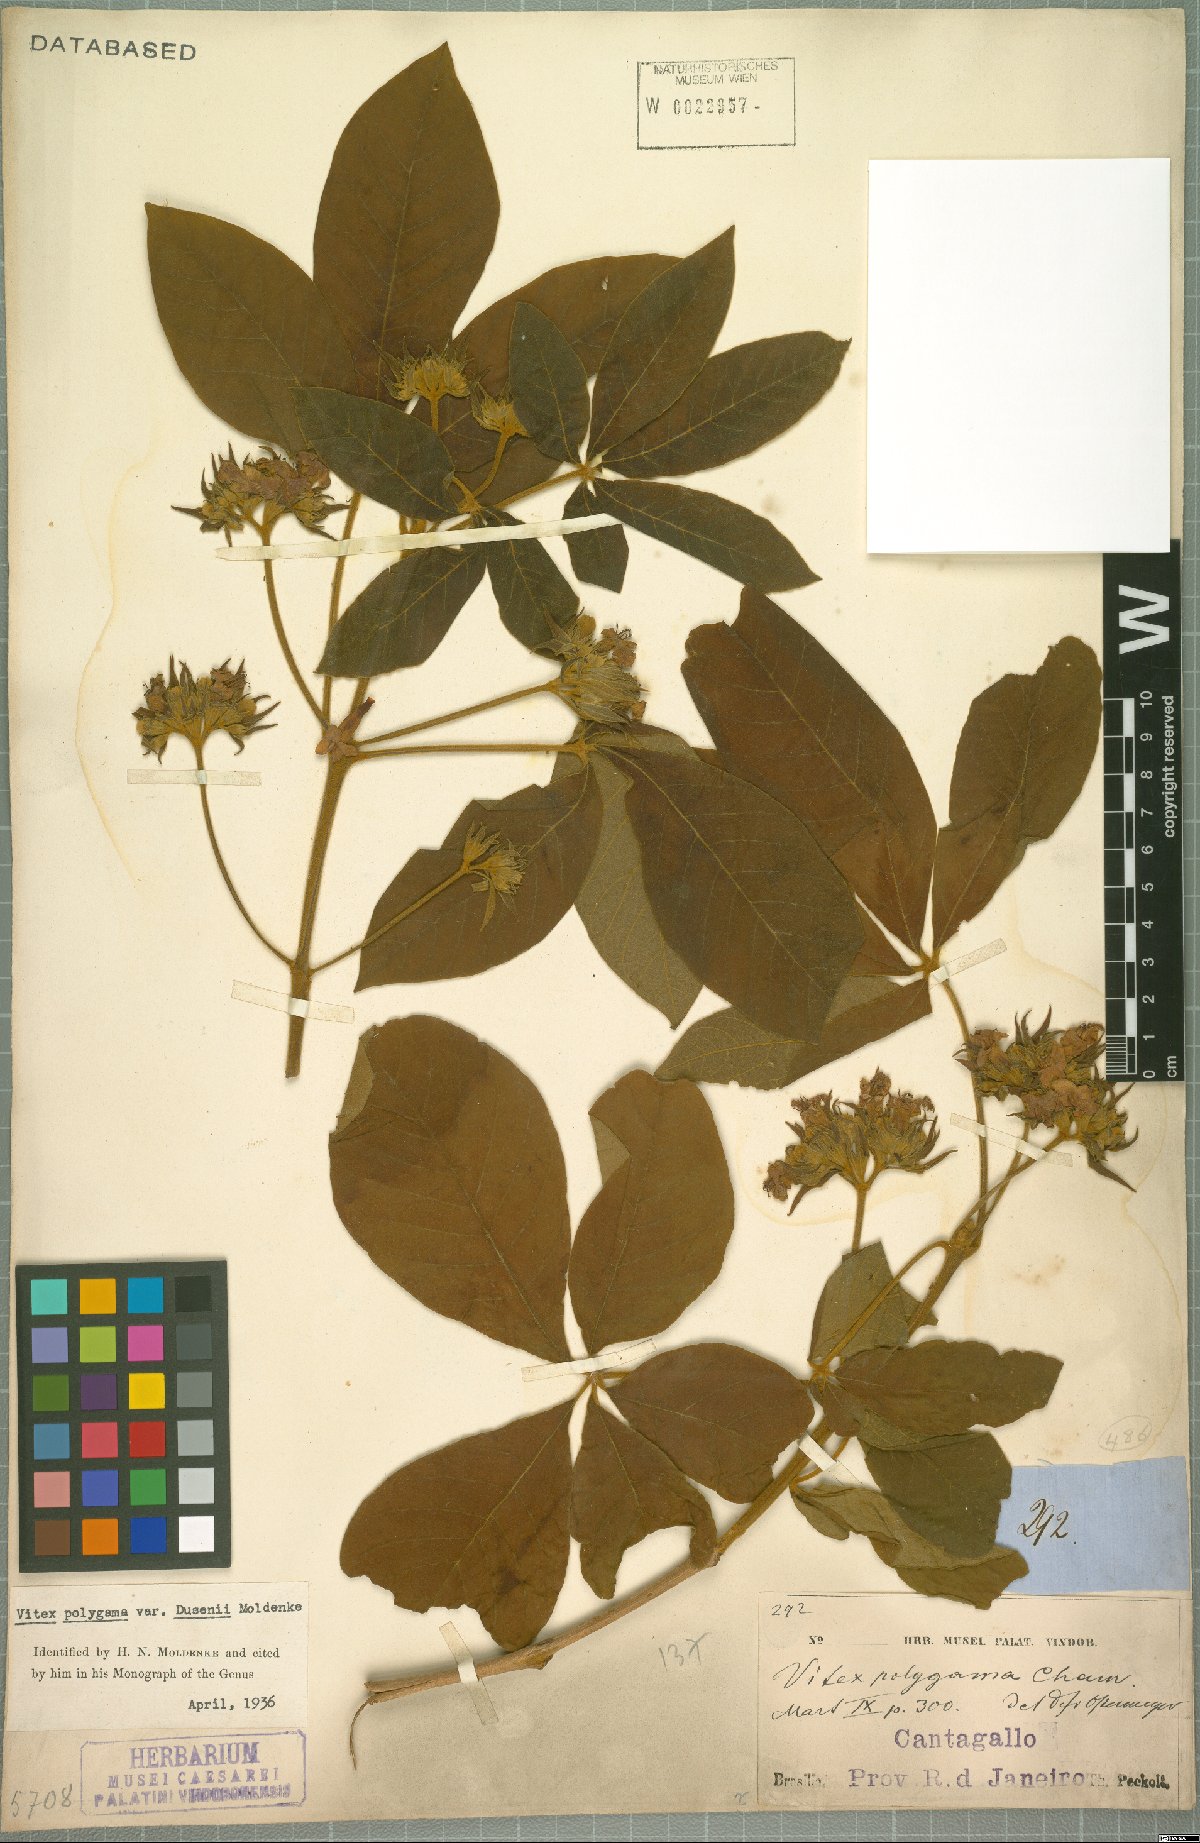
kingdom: Plantae
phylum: Tracheophyta
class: Magnoliopsida
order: Lamiales
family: Lamiaceae
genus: Vitex
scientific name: Vitex polygama
